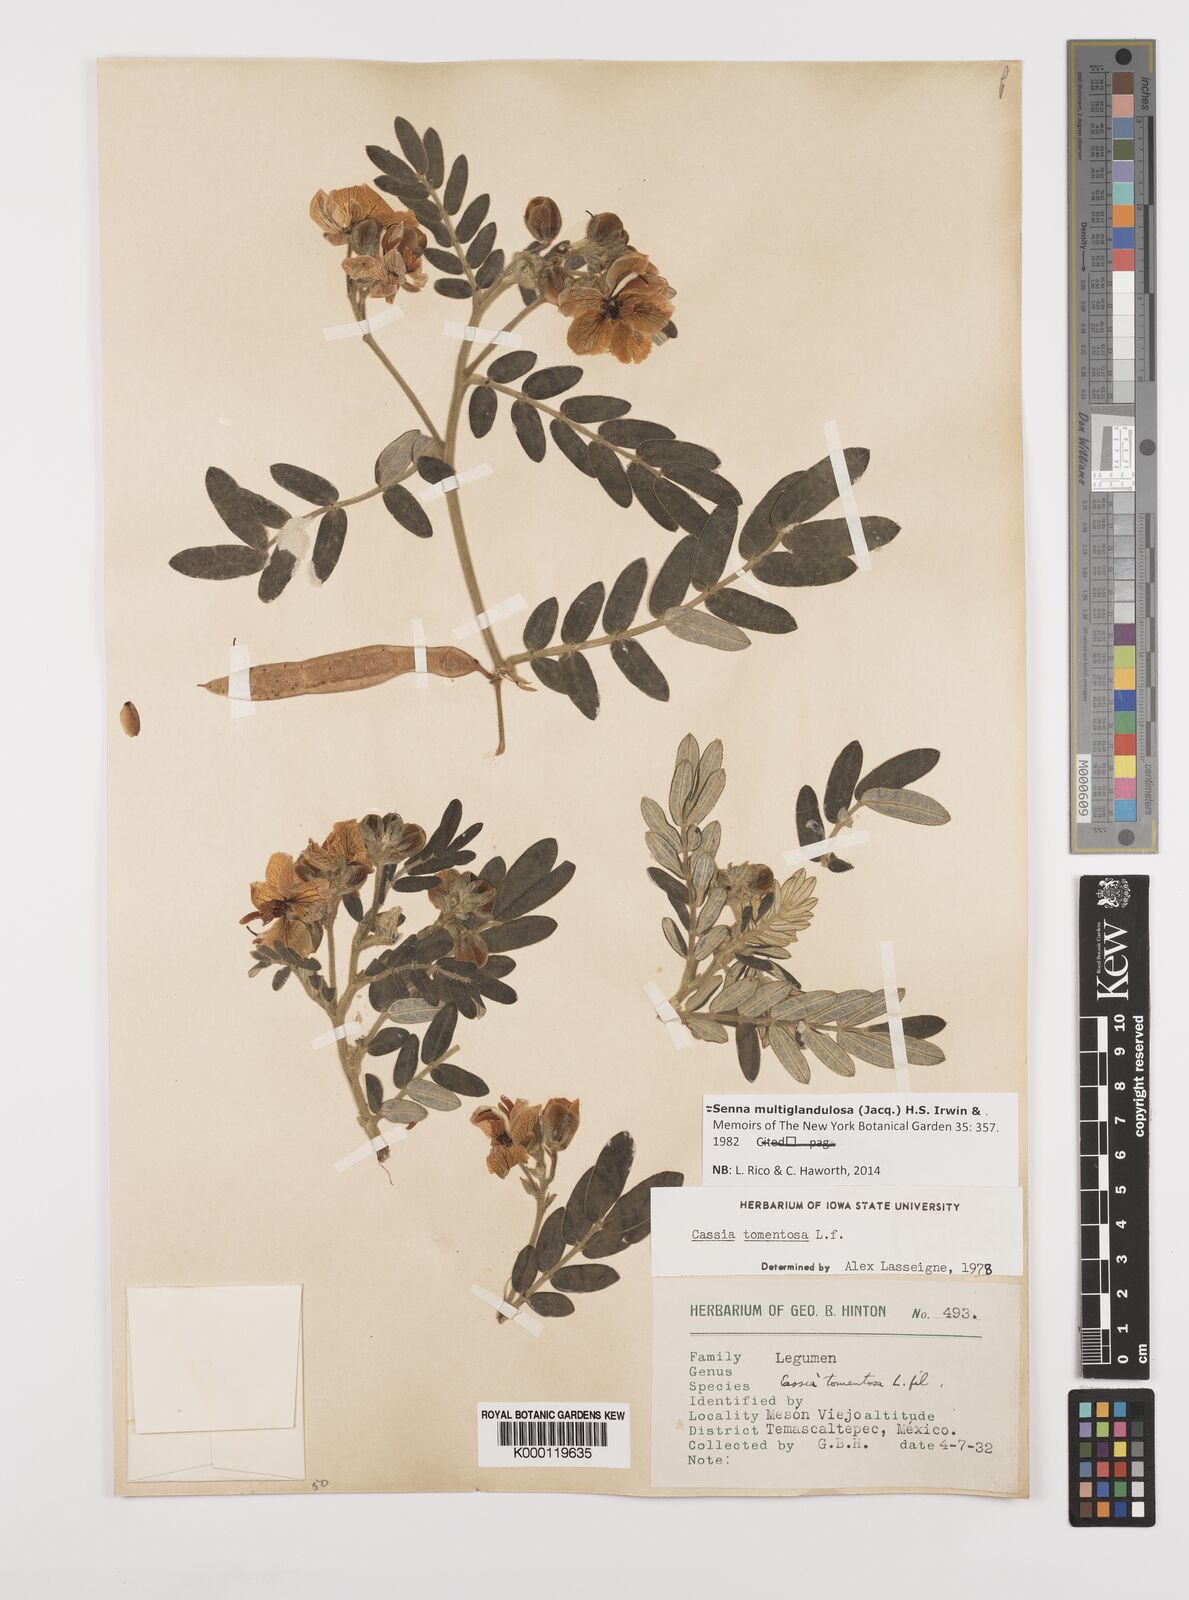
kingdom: Plantae
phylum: Tracheophyta
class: Magnoliopsida
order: Fabales
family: Fabaceae
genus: Senna
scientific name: Senna multiglandulosa
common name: Glandular senna
